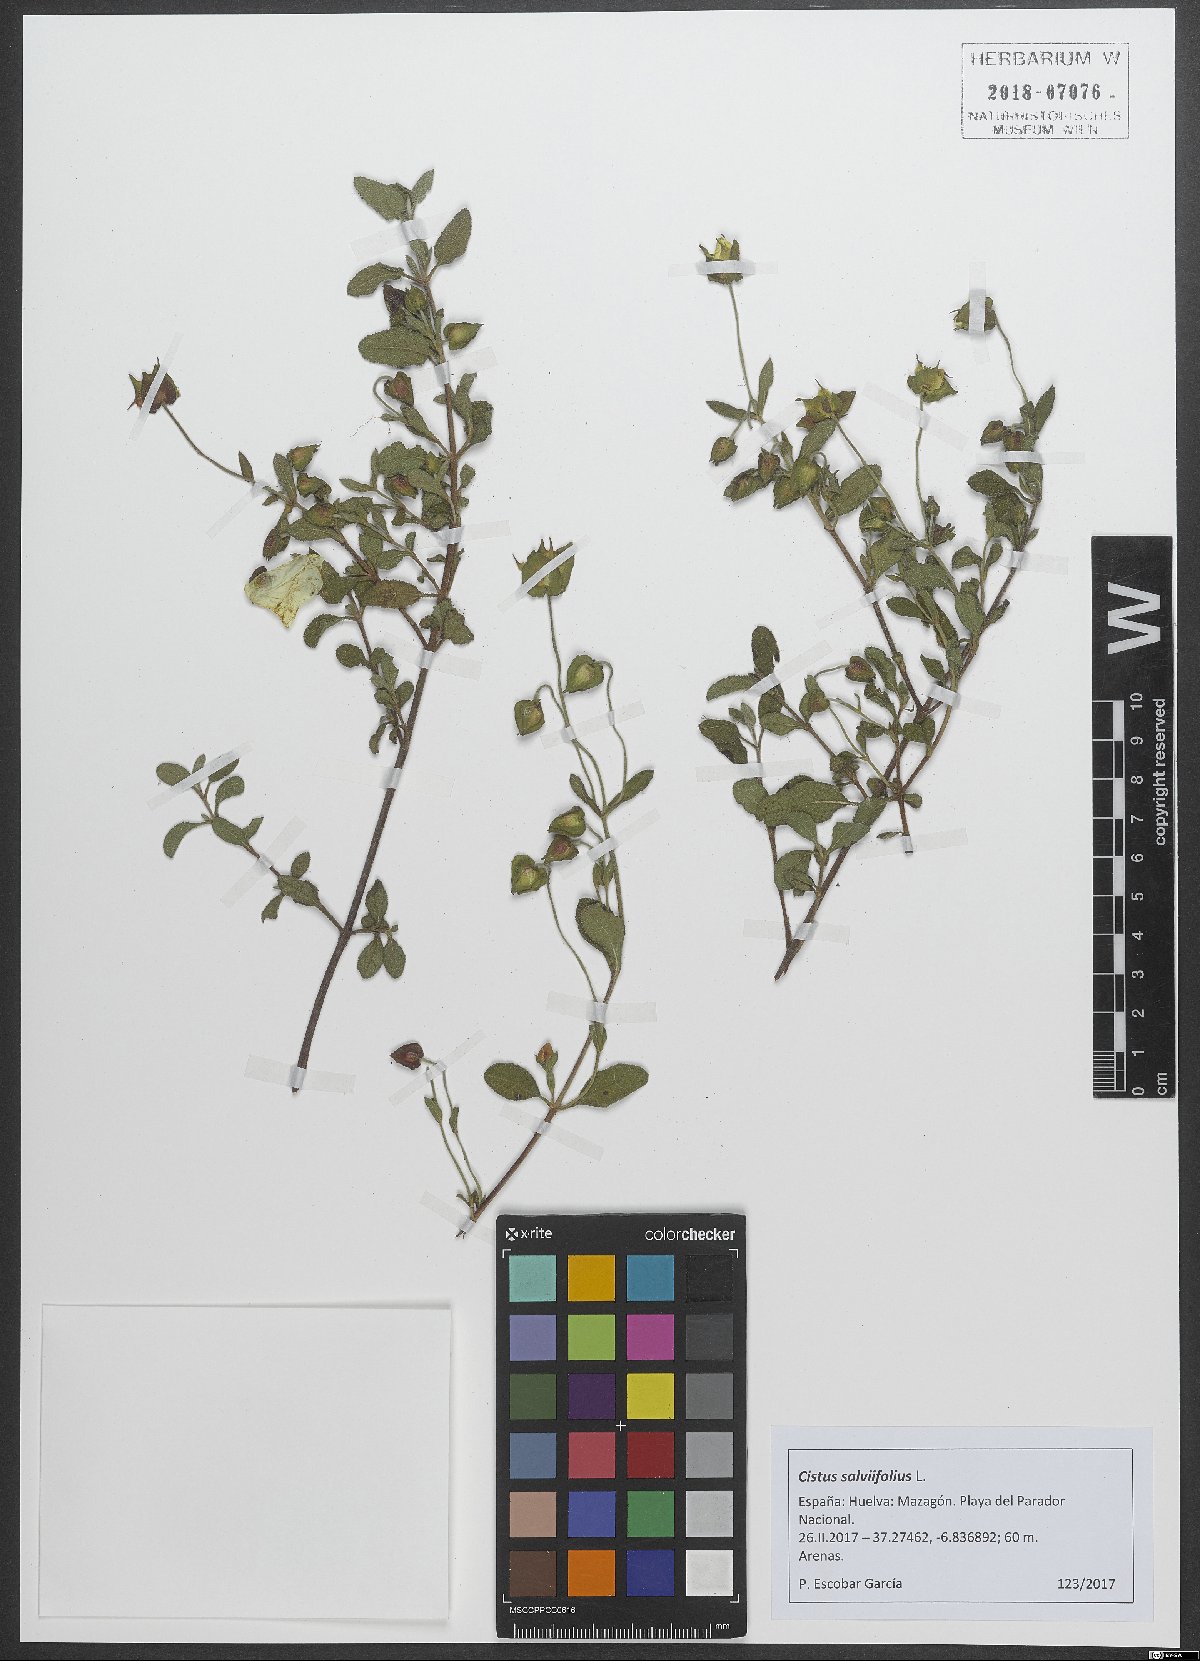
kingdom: Plantae
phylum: Tracheophyta
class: Magnoliopsida
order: Malvales
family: Cistaceae
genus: Cistus
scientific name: Cistus salviifolius
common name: Salvia cistus
